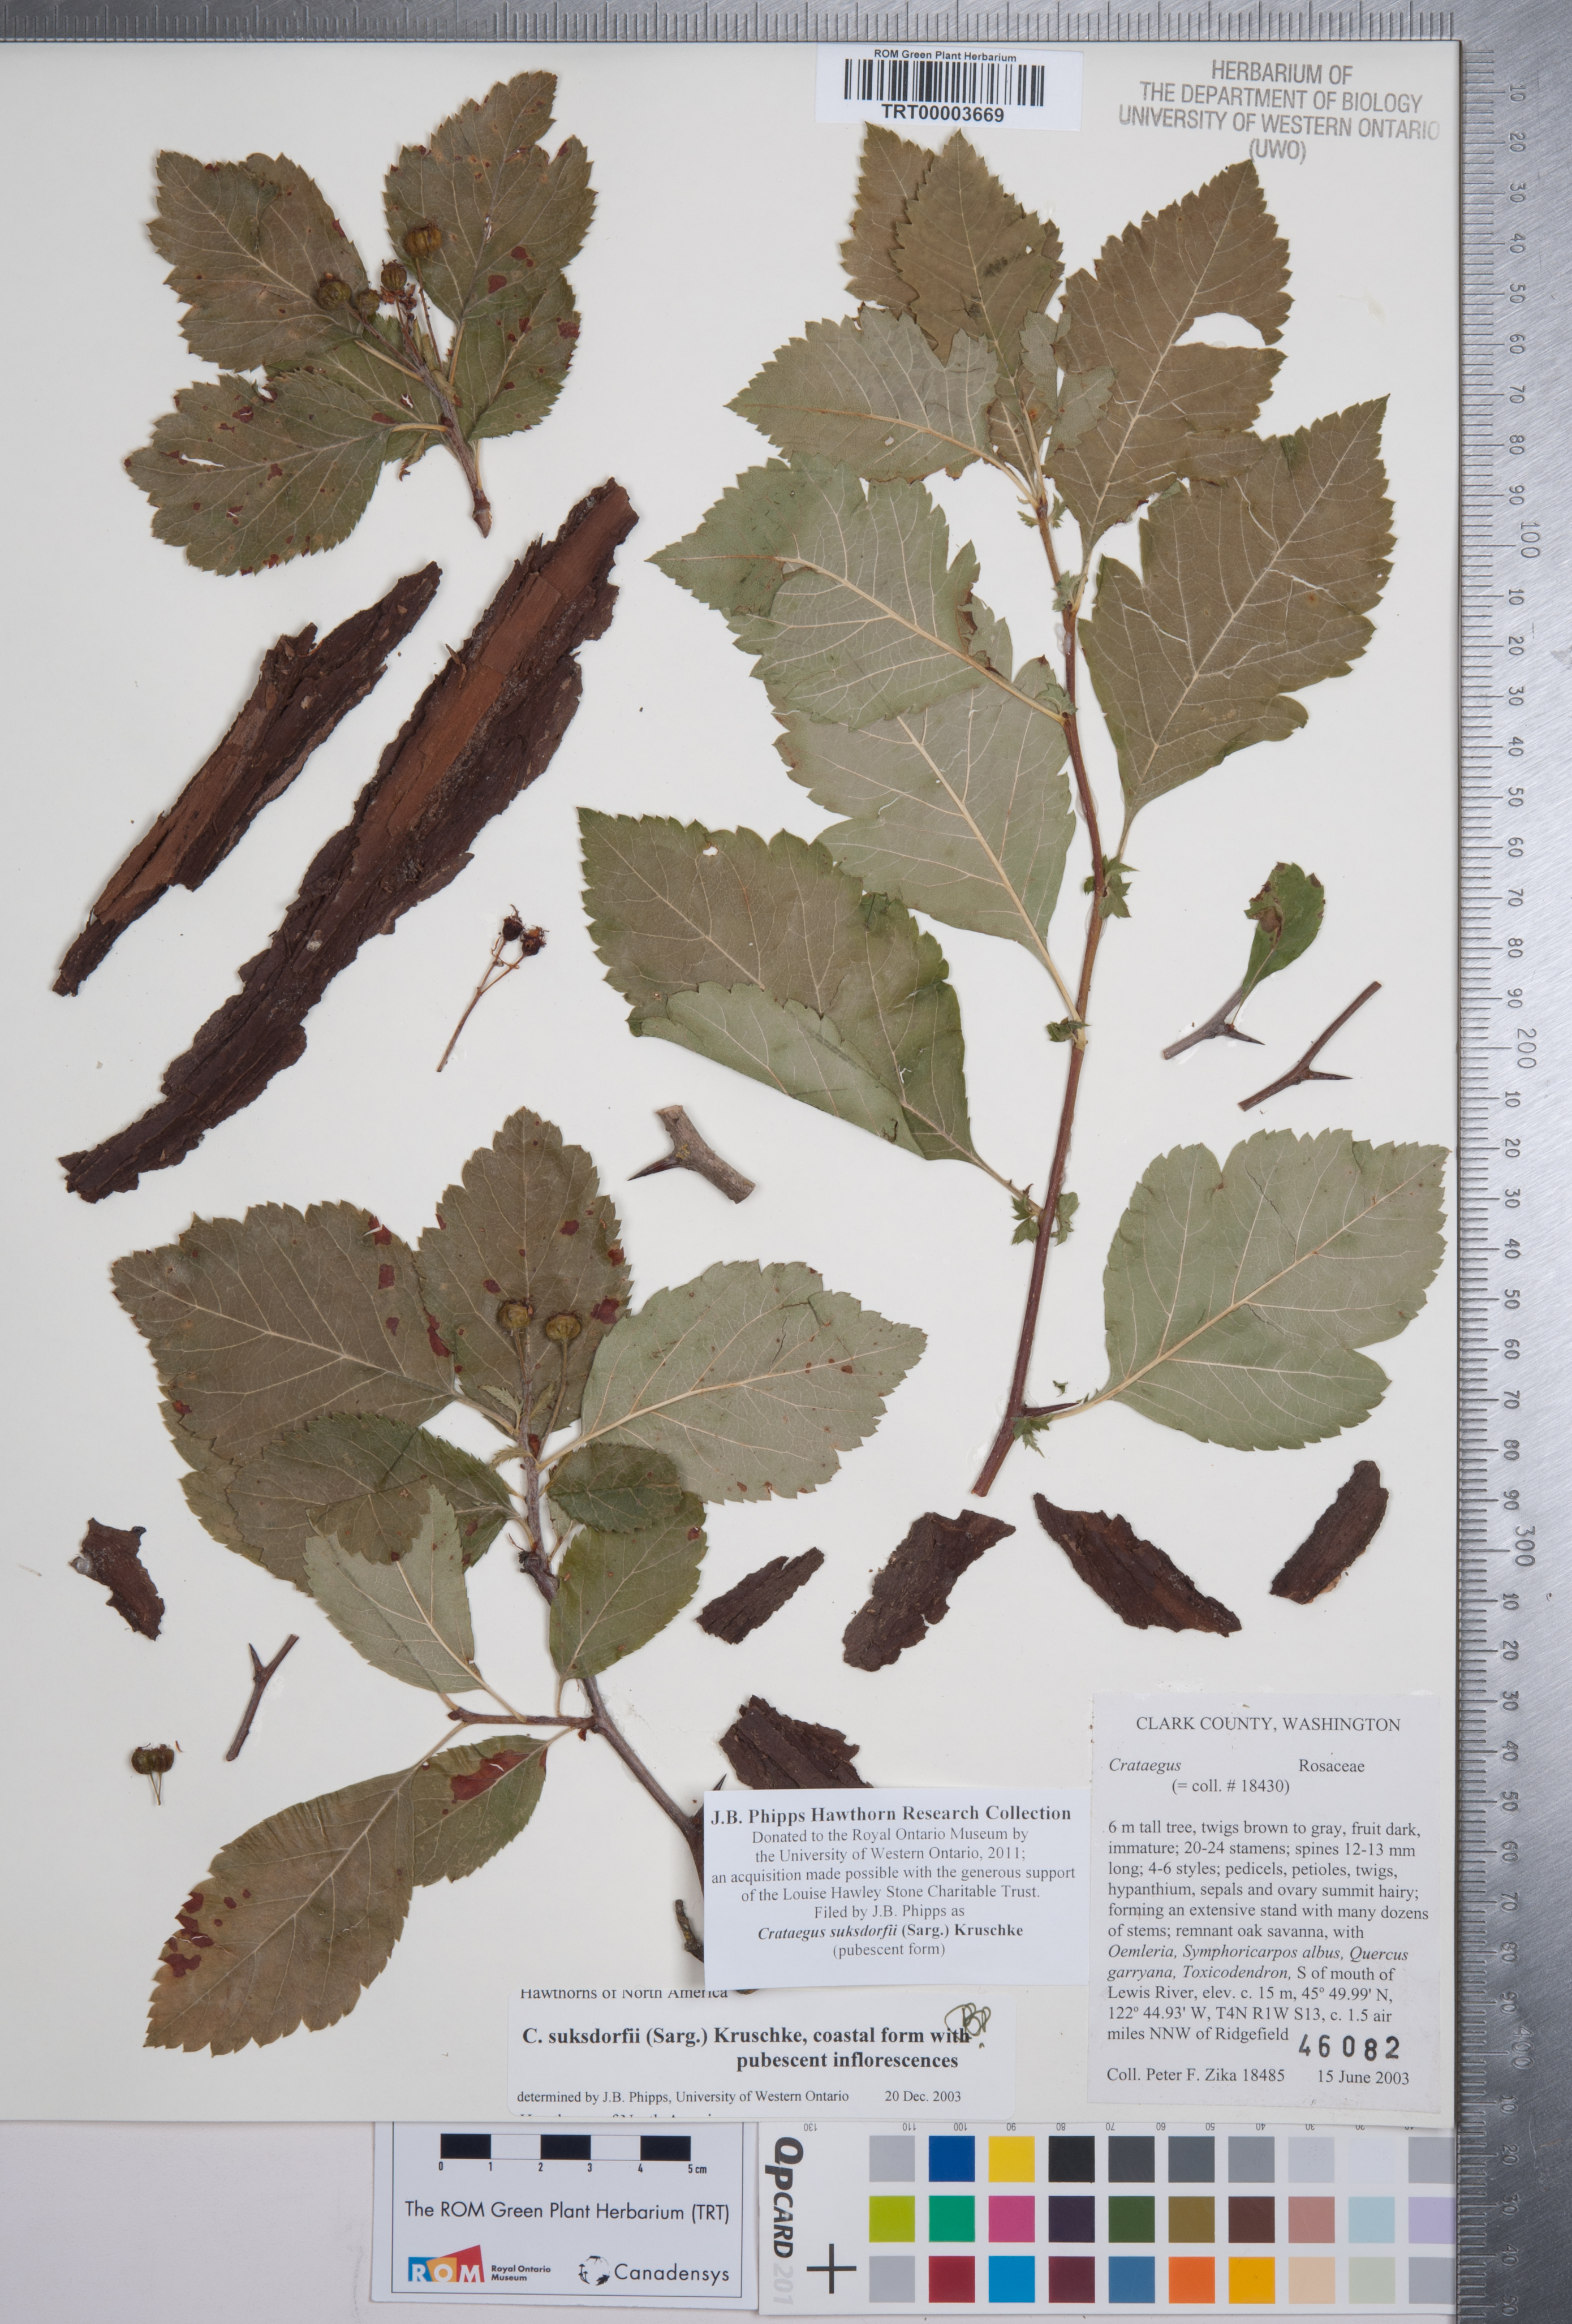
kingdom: Plantae
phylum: Tracheophyta
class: Magnoliopsida
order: Rosales
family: Rosaceae
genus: Crataegus
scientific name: Crataegus gaylussacia
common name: Huckleberry hawthorn
